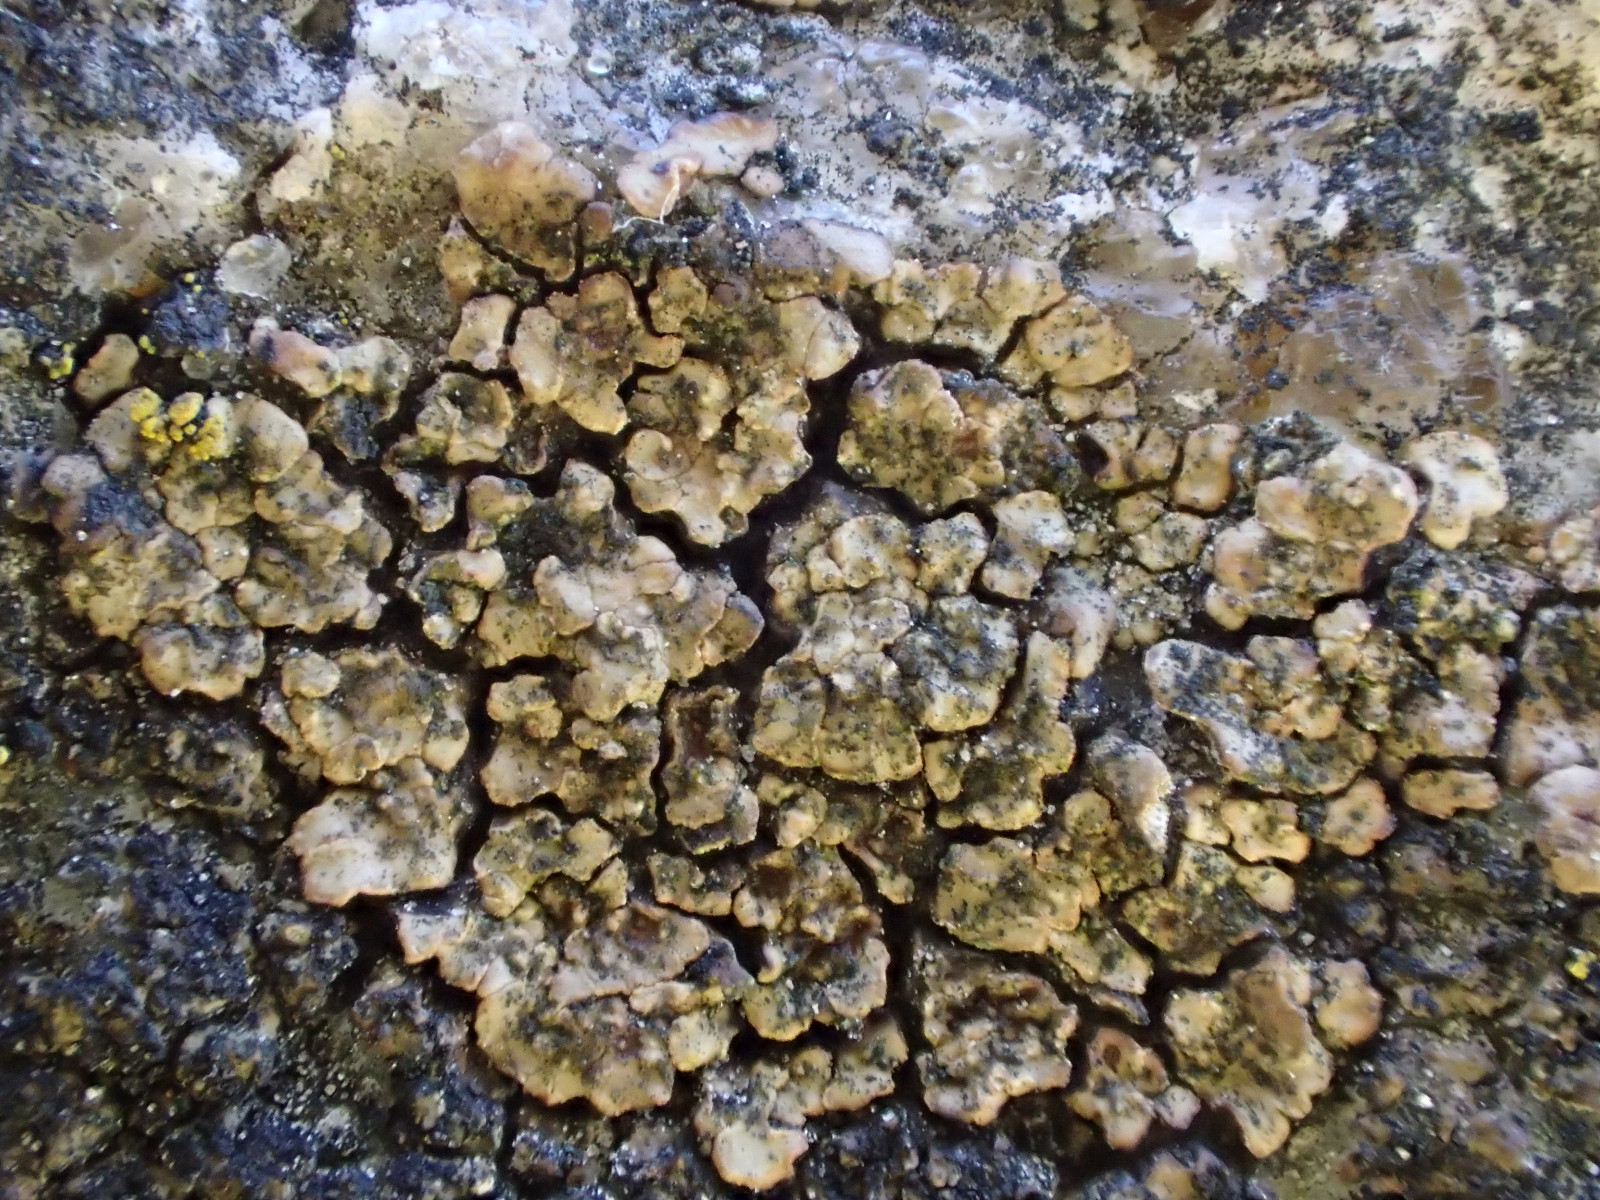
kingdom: Fungi
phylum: Ascomycota
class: Lecanoromycetes
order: Acarosporales
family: Acarosporaceae
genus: Acarospora
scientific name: Acarospora fuscata
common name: brun småsporelav
